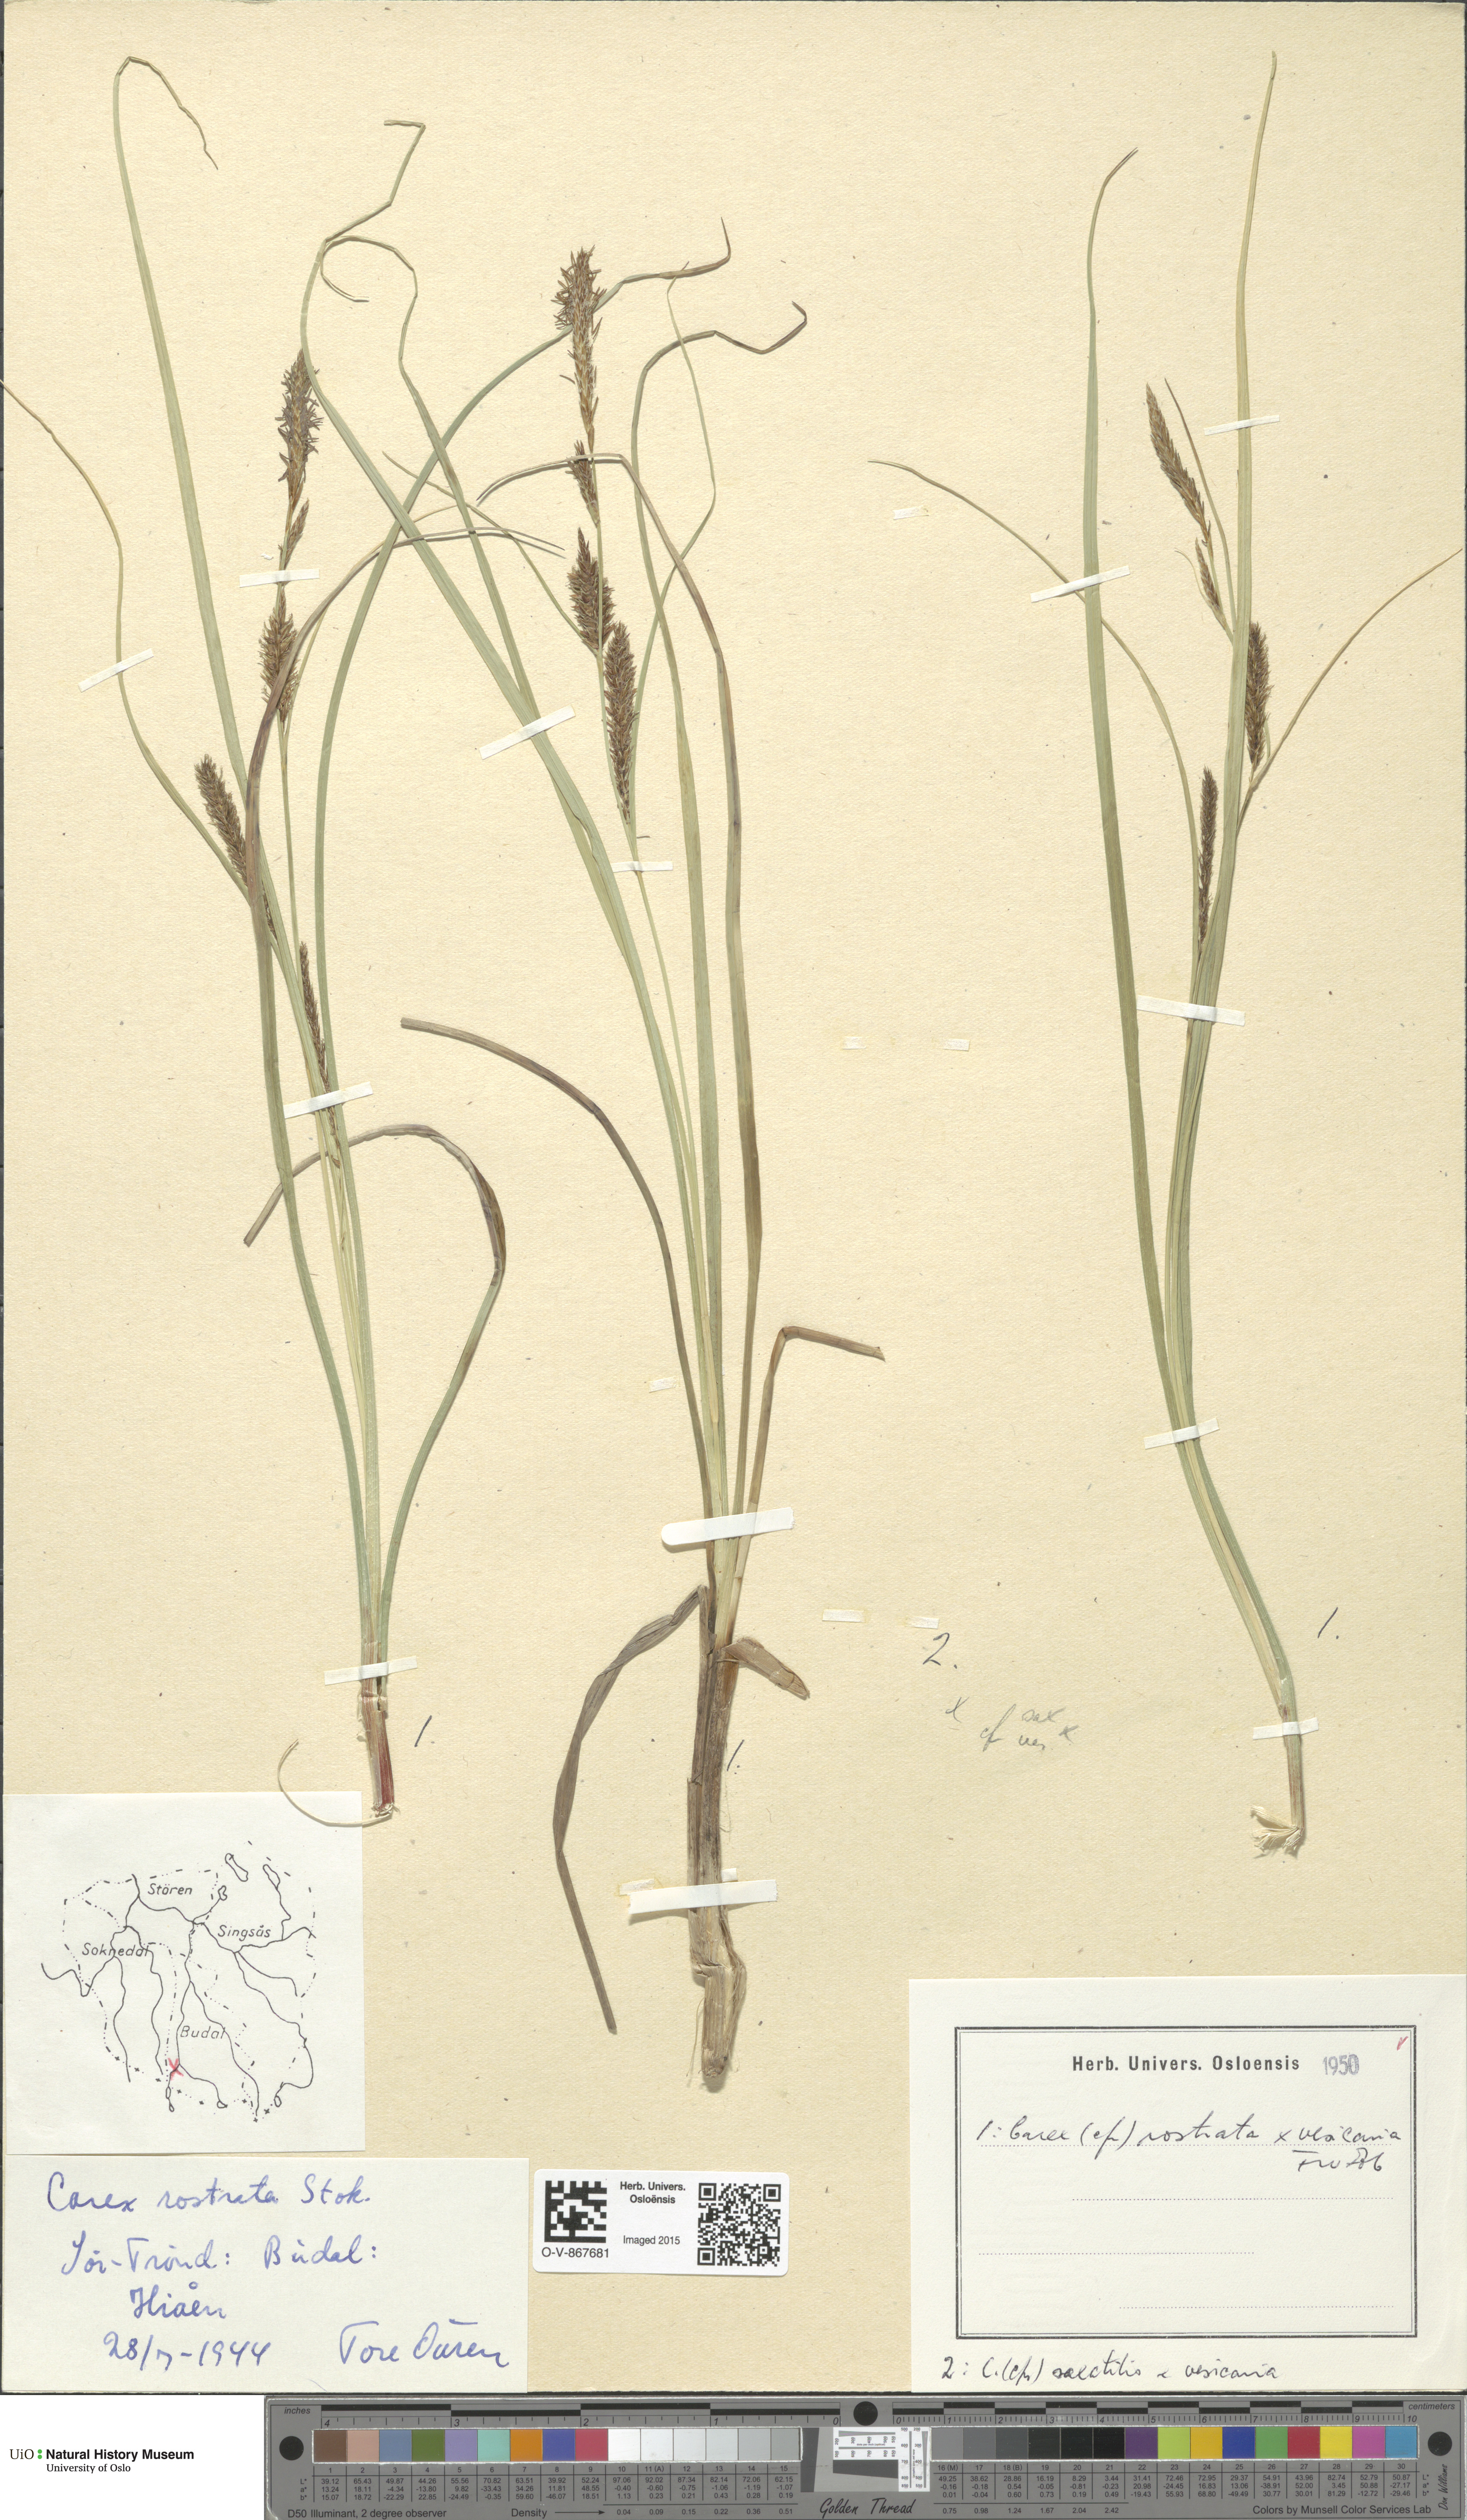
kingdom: Plantae
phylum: Tracheophyta
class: Liliopsida
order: Poales
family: Cyperaceae
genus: Carex
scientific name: Carex
